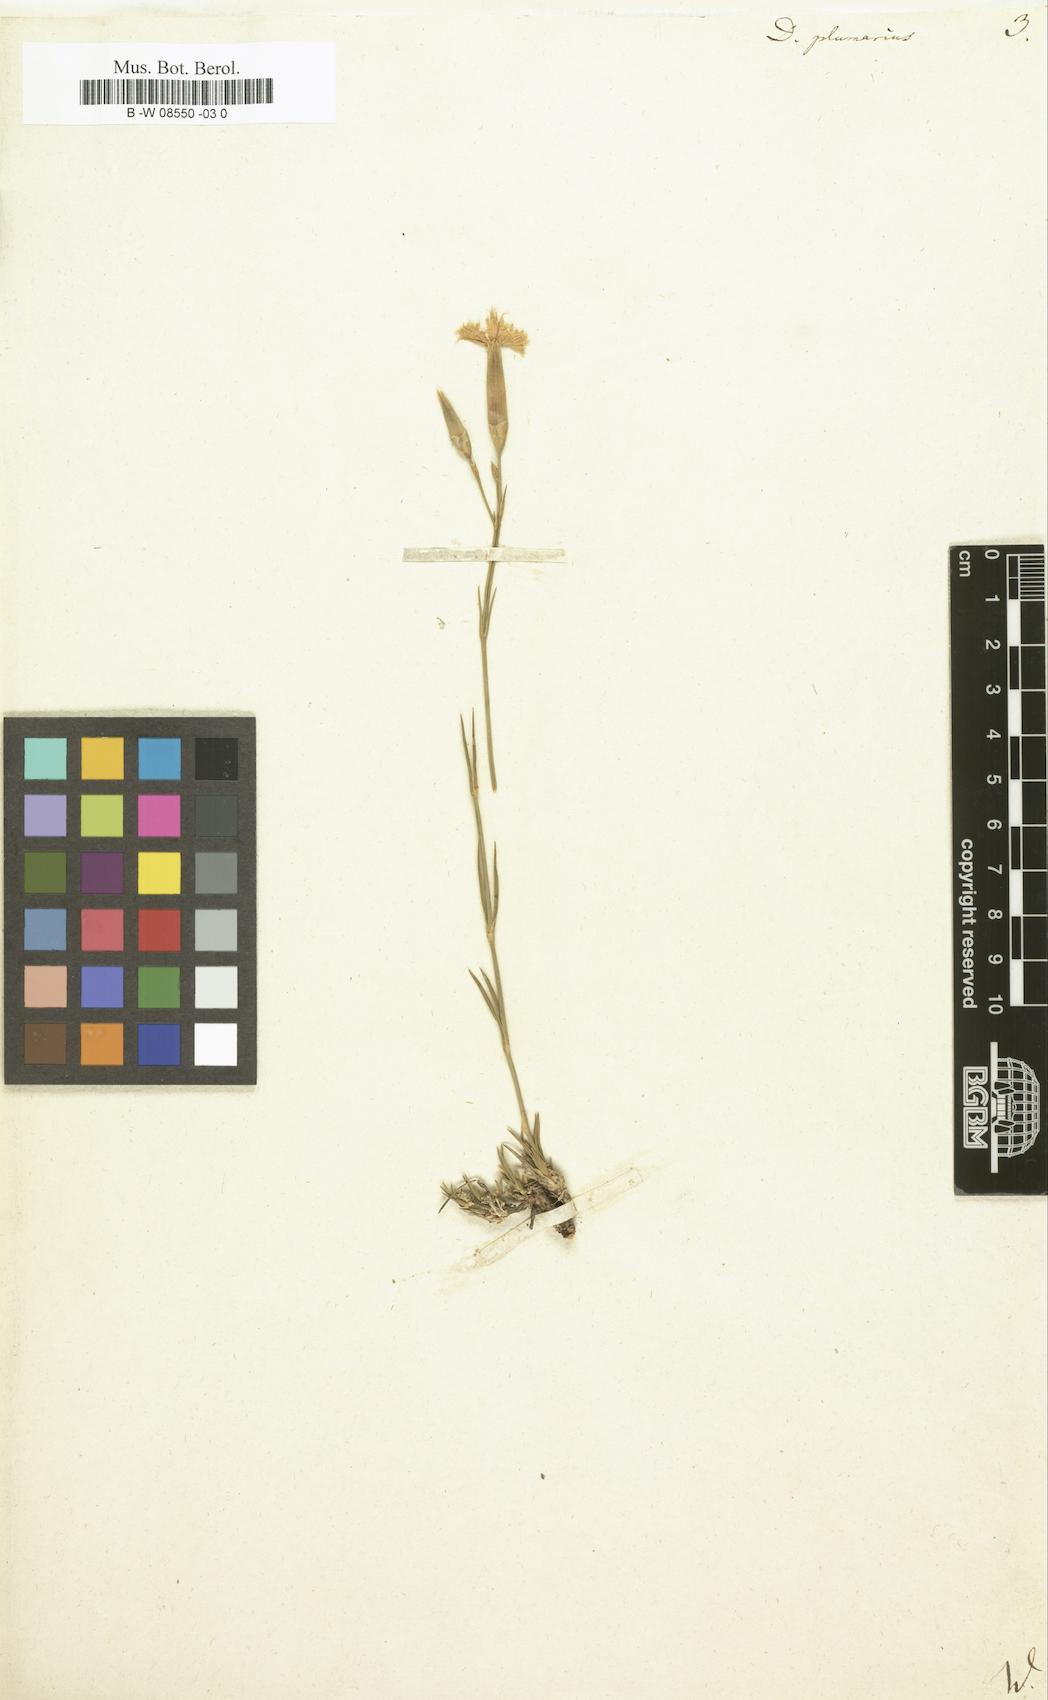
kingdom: Plantae
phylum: Tracheophyta
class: Magnoliopsida
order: Caryophyllales
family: Caryophyllaceae
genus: Dianthus
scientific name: Dianthus plumarius
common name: Pink
